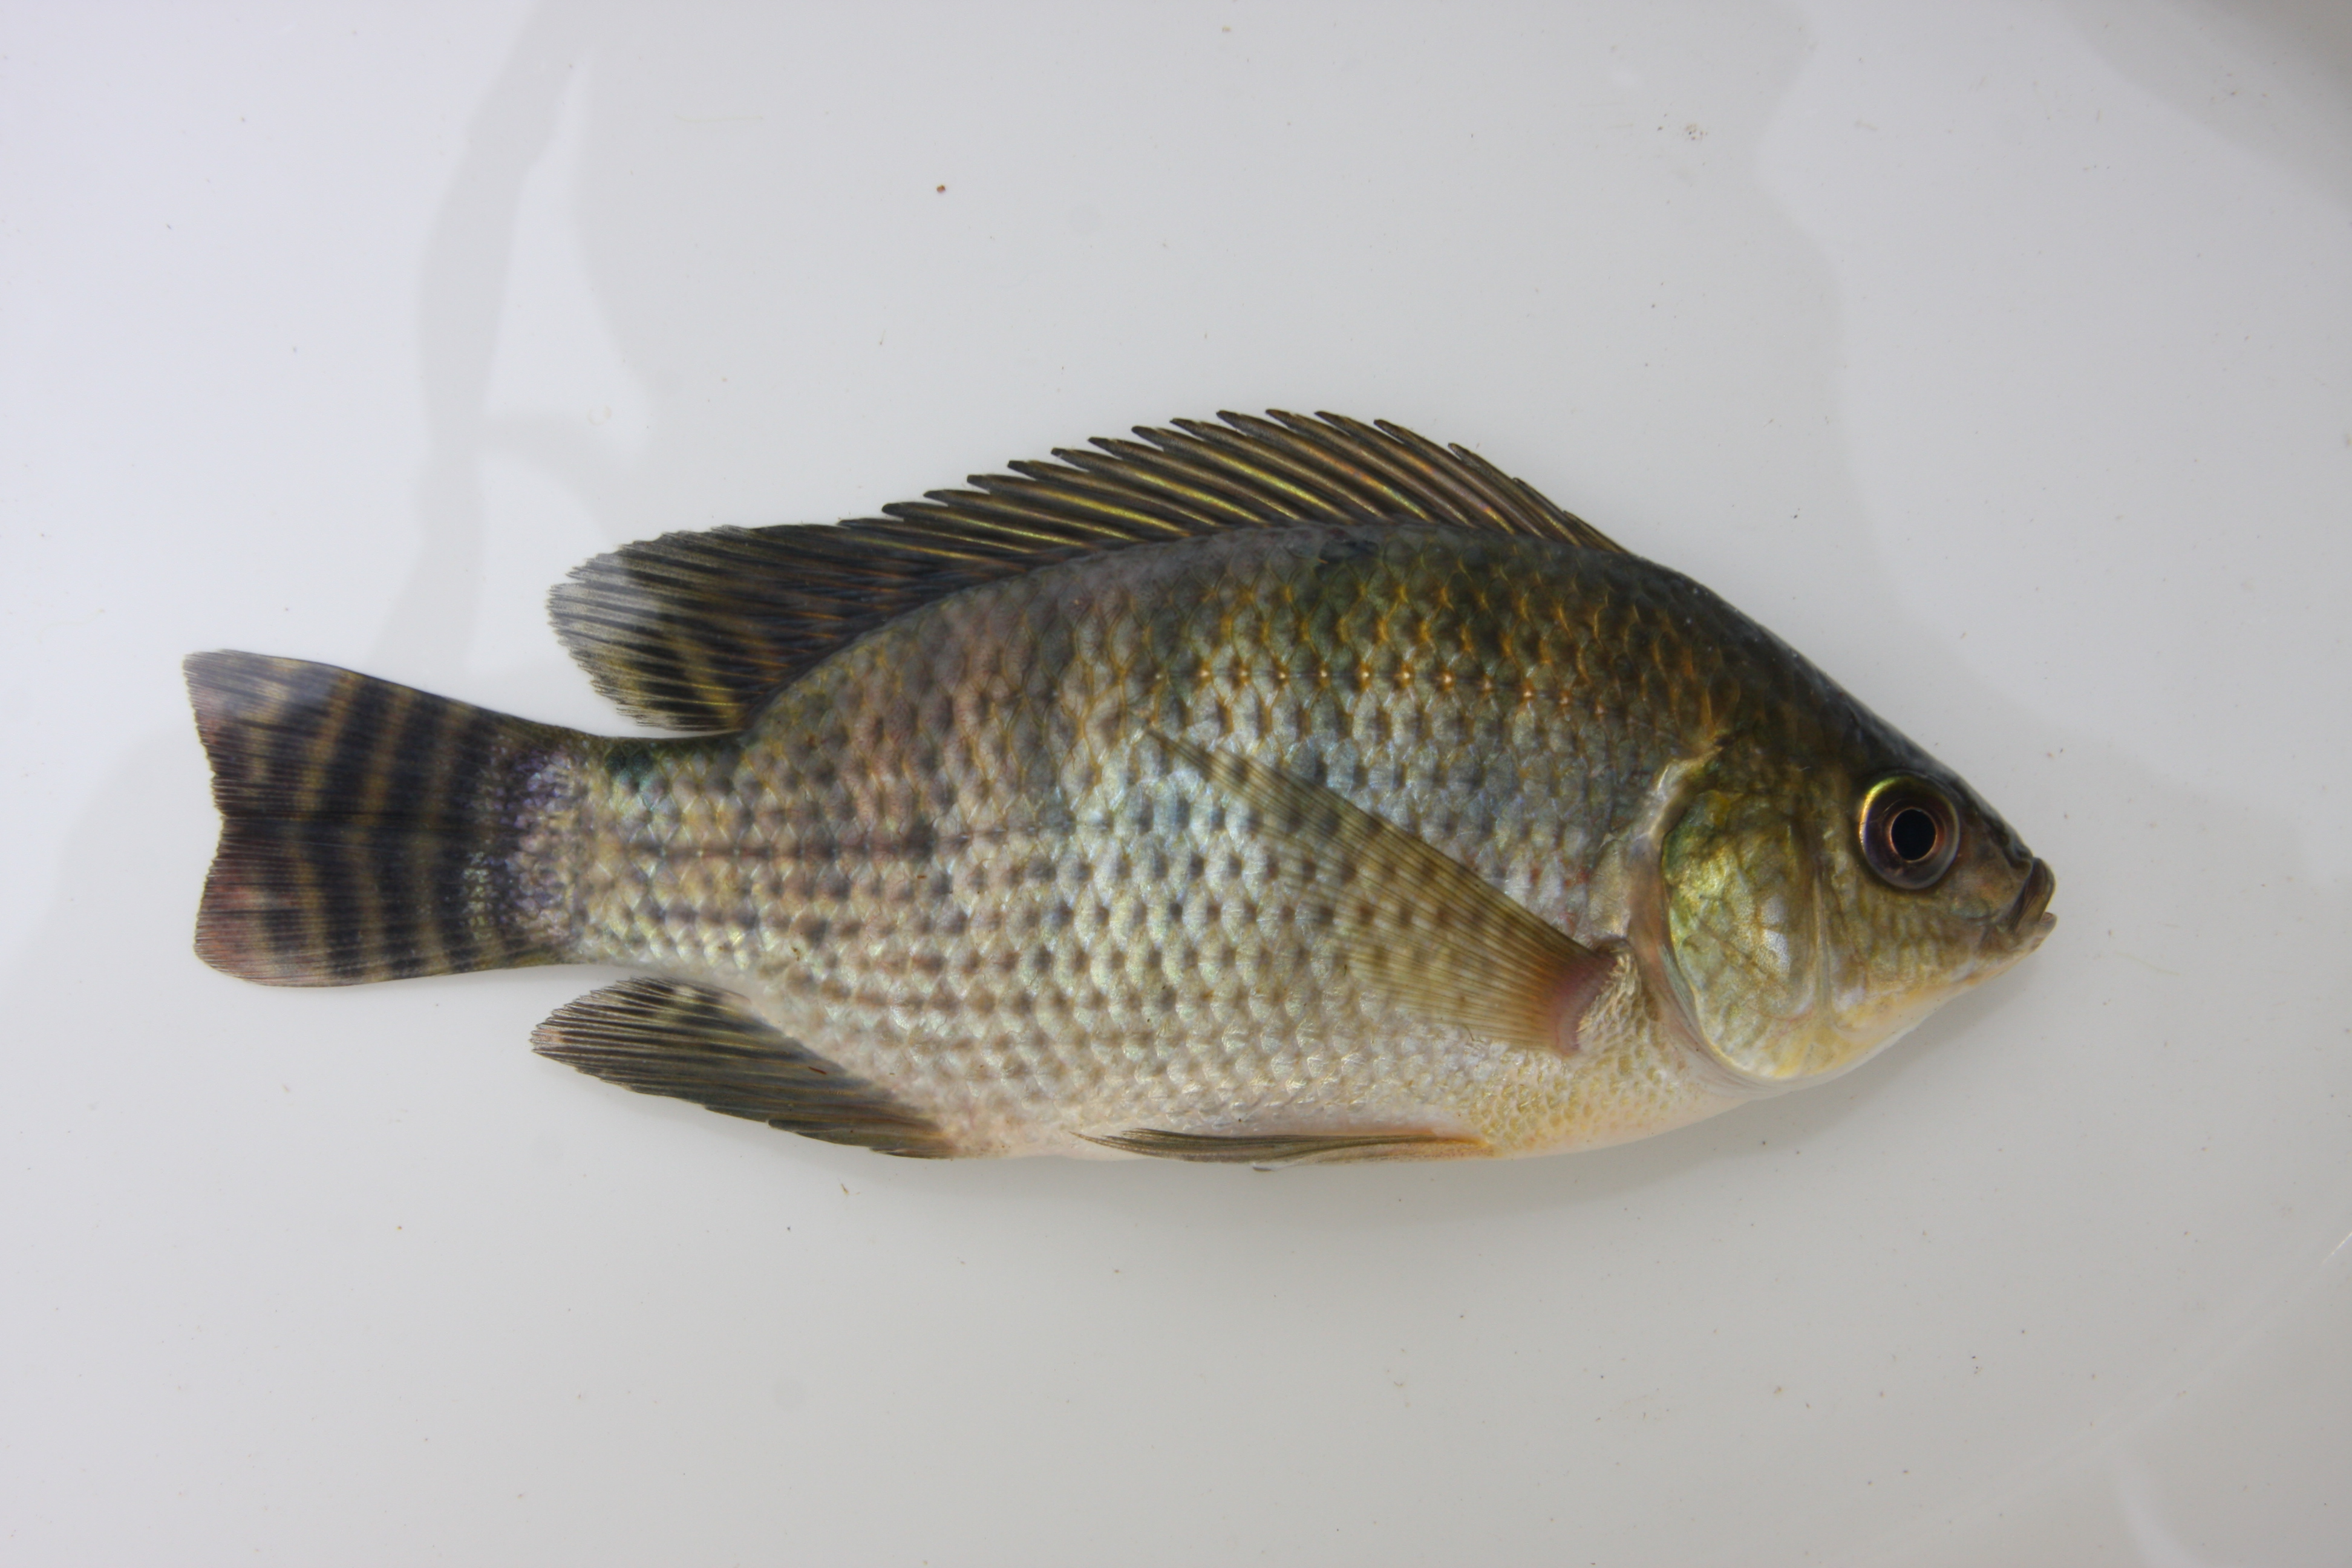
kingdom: Animalia
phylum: Chordata
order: Perciformes
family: Cichlidae
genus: Tilapia
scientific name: Tilapia sparrmanii
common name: Banded tilapia
